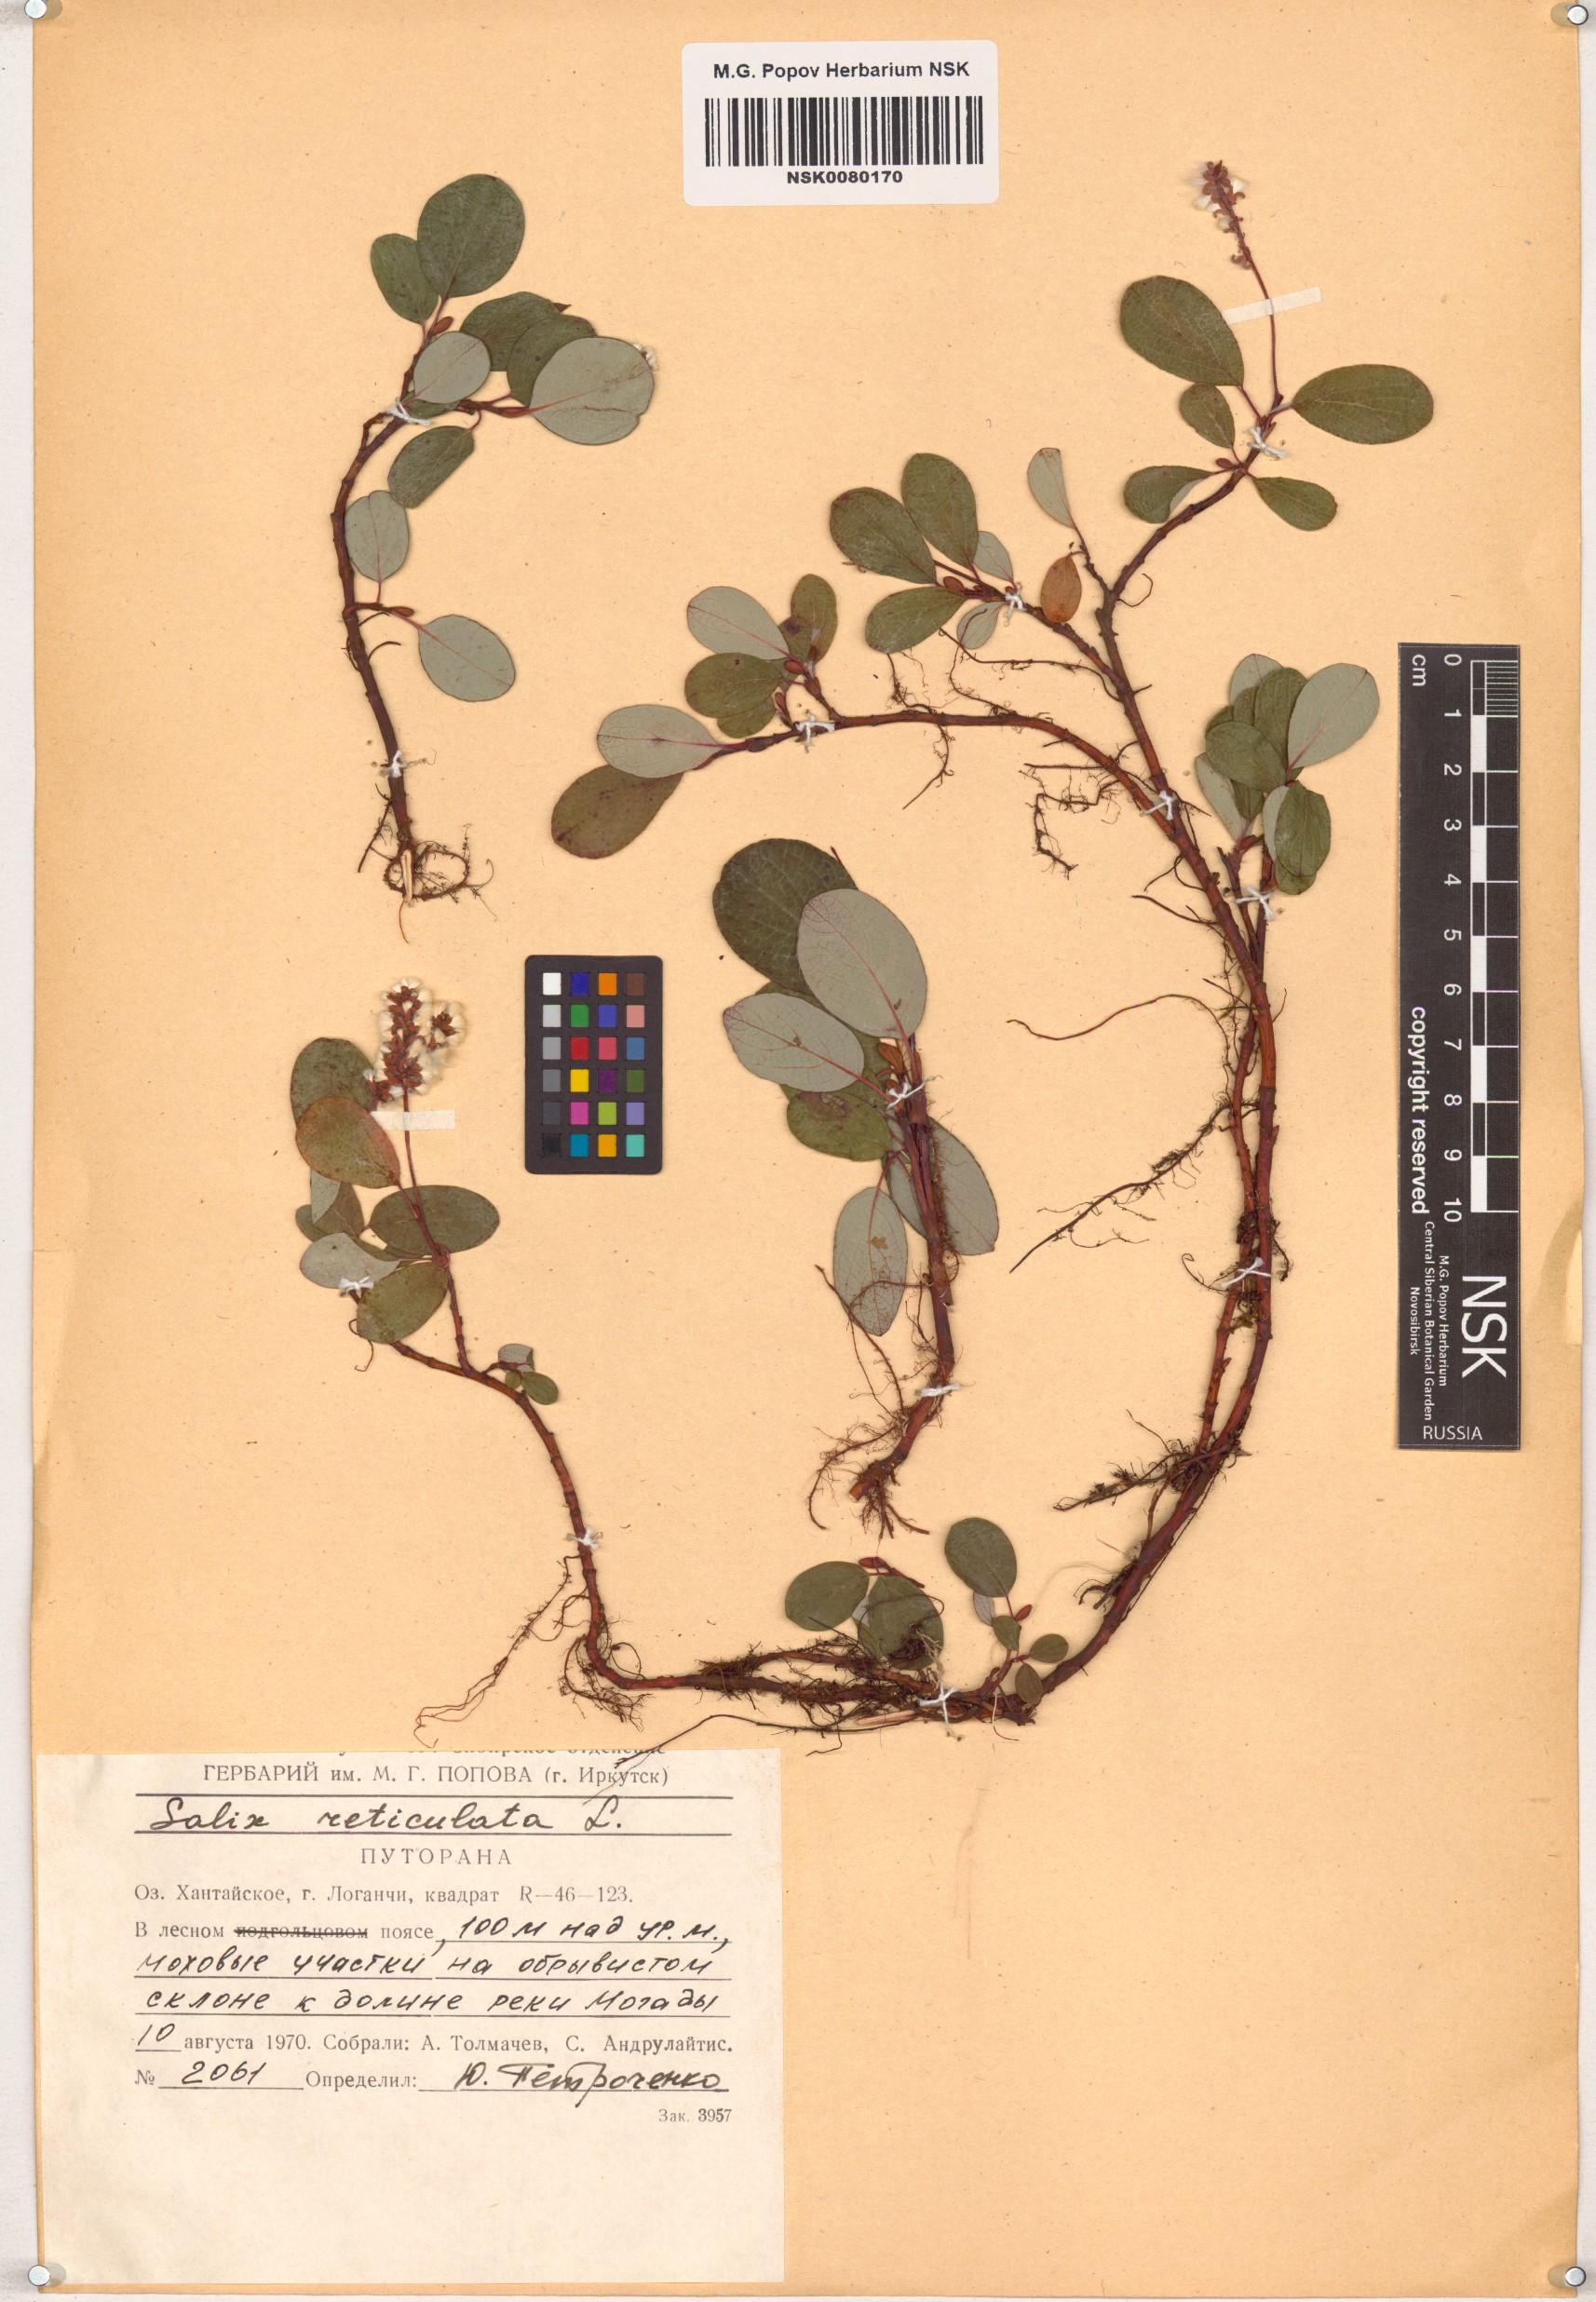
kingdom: Plantae
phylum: Tracheophyta
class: Magnoliopsida
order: Malpighiales
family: Salicaceae
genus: Salix
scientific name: Salix reticulata
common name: Net-leaved willow
